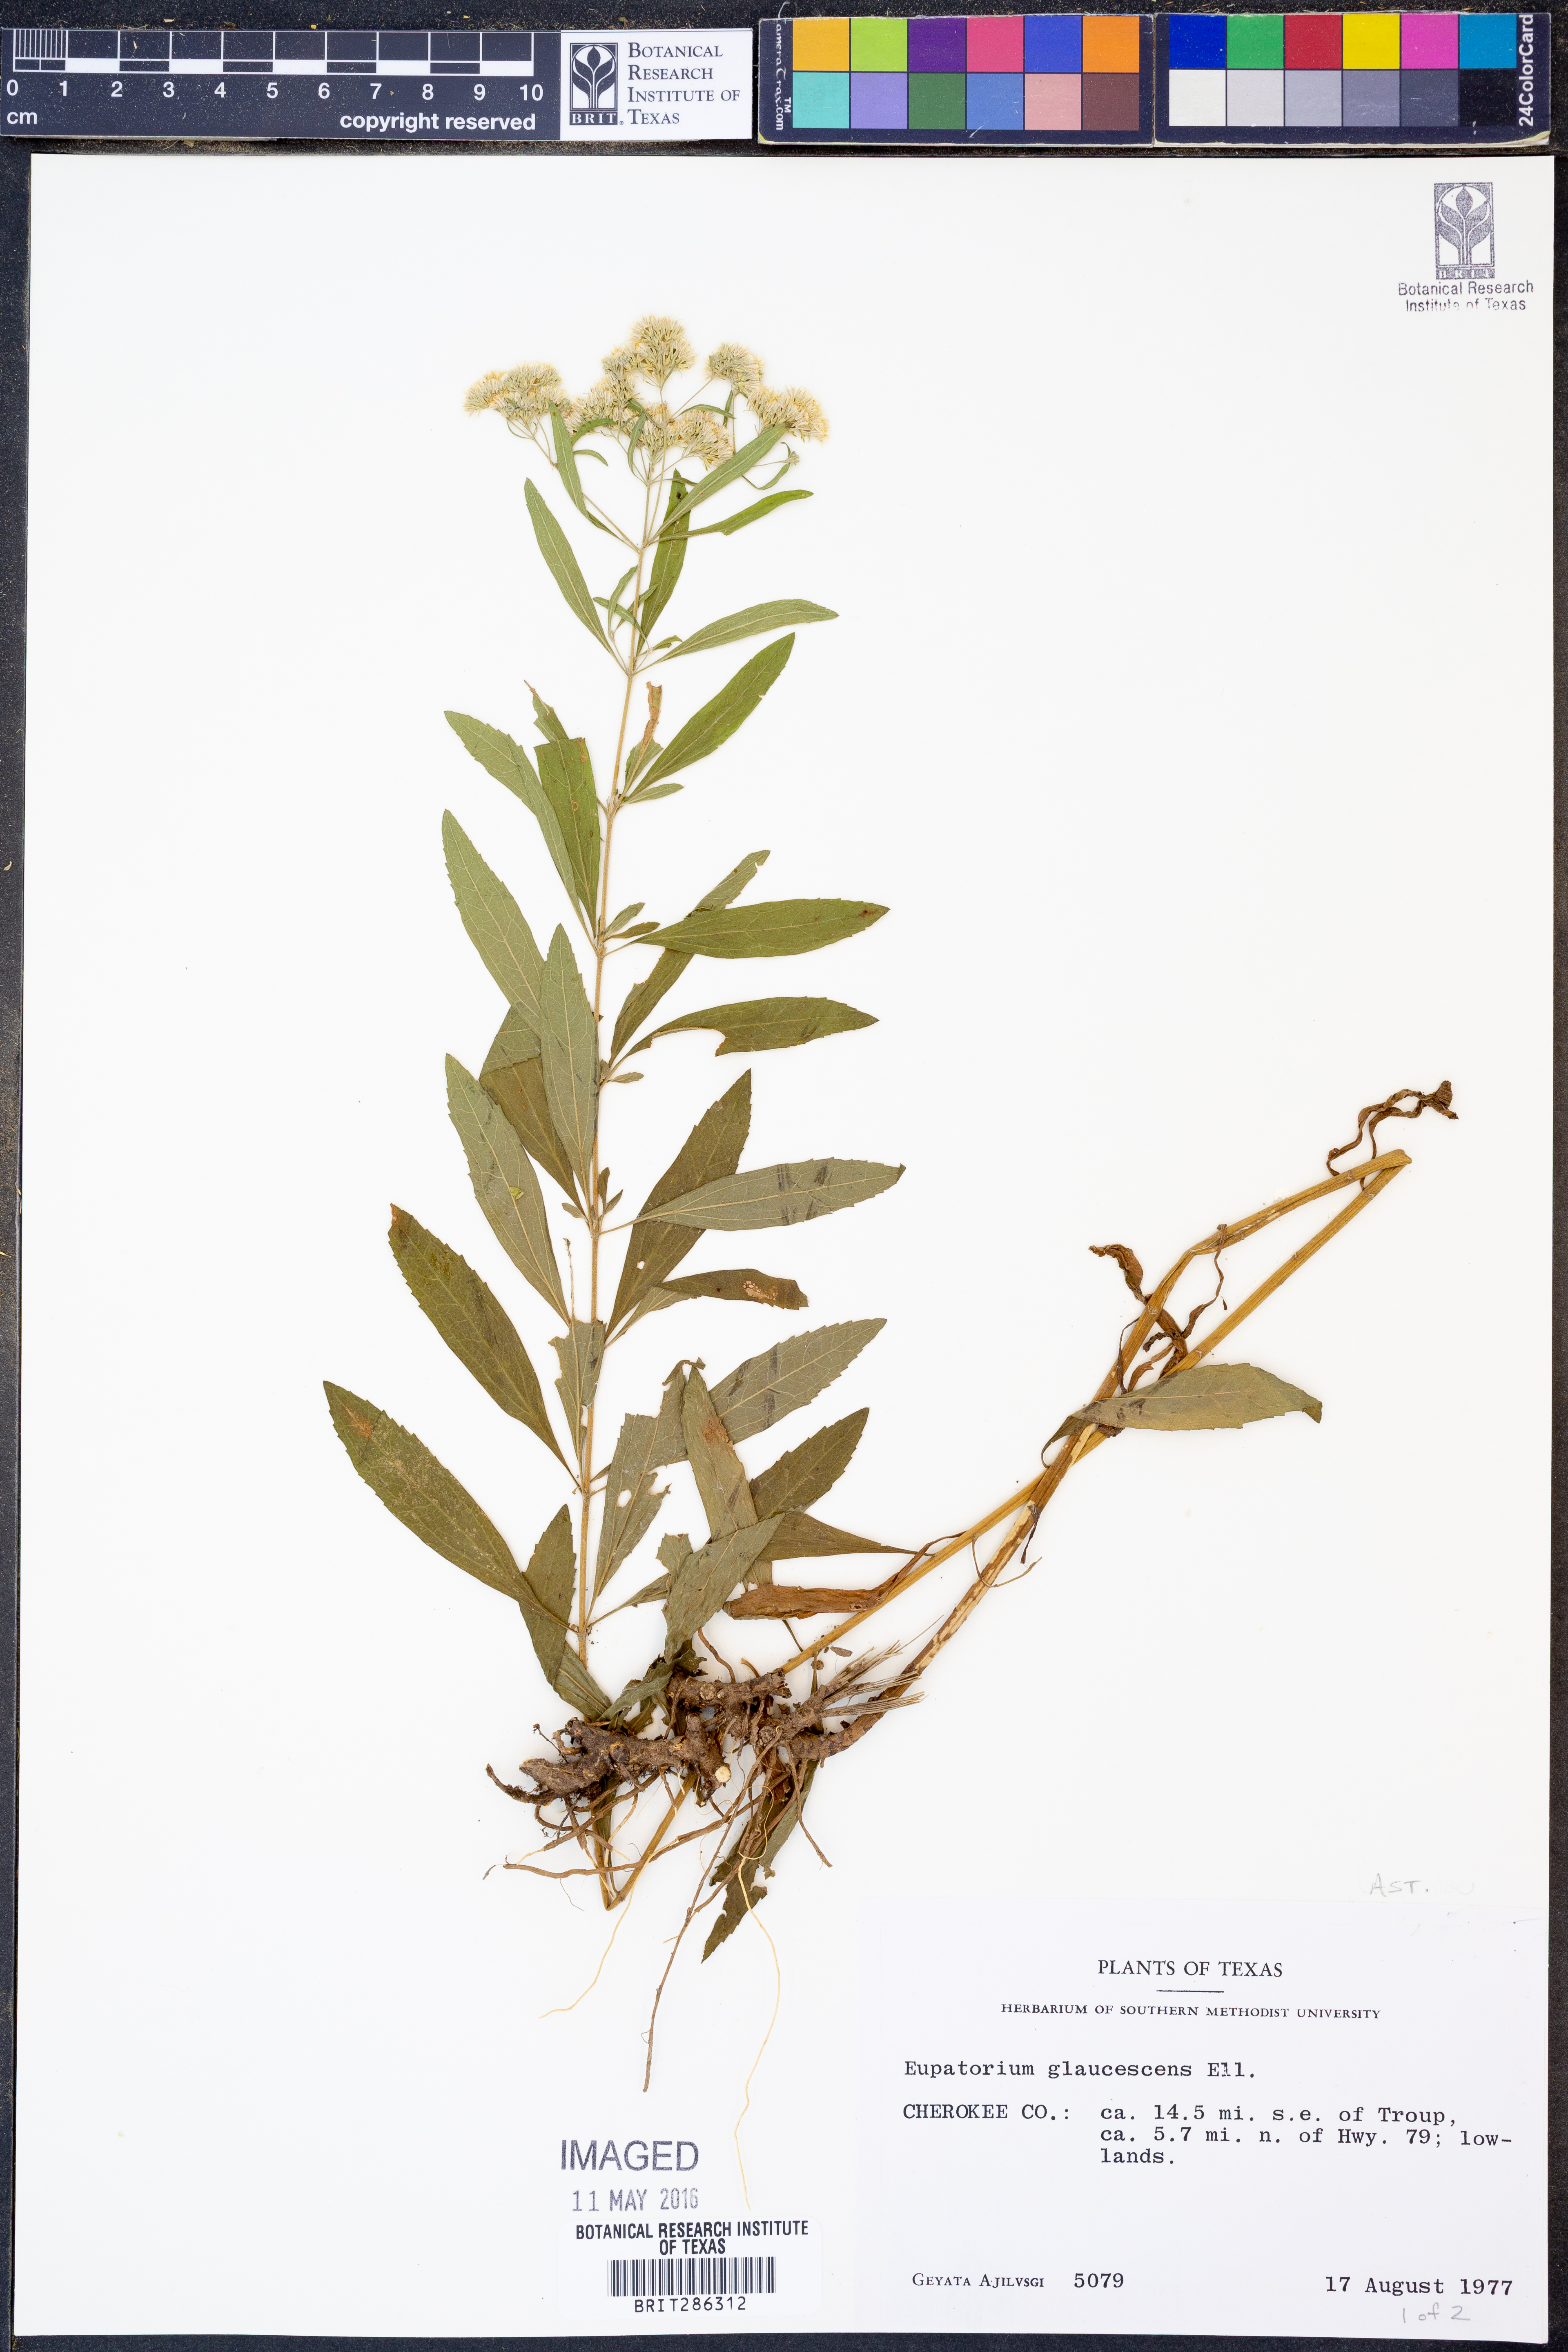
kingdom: Plantae
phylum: Tracheophyta
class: Magnoliopsida
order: Asterales
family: Asteraceae
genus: Eupatorium
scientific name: Eupatorium linearifolium
